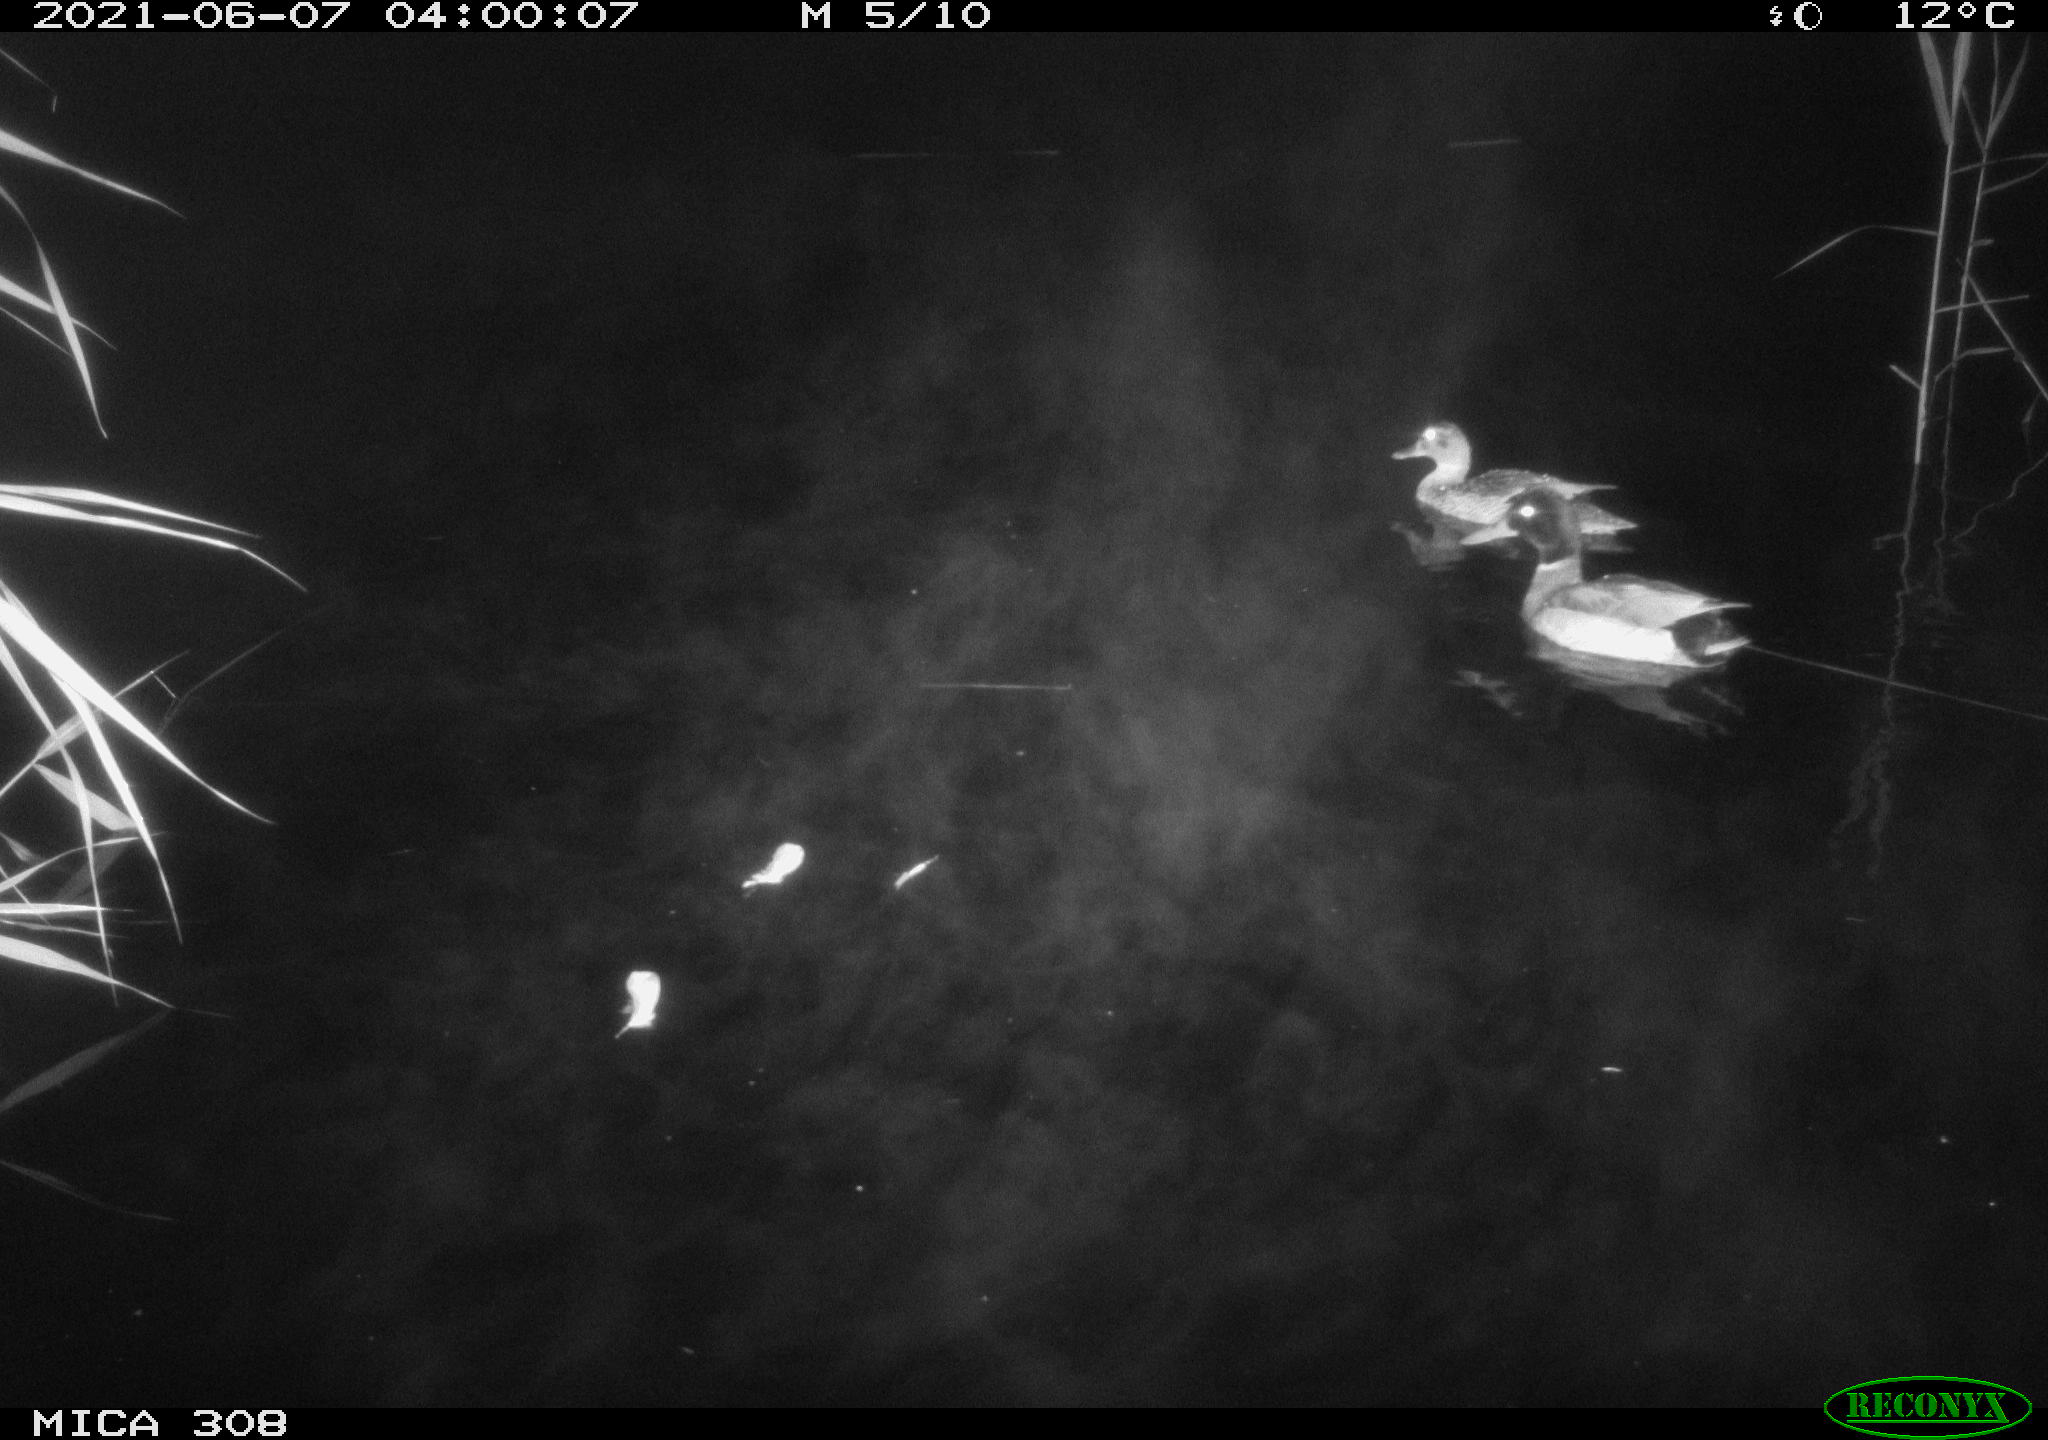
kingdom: Animalia
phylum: Chordata
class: Aves
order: Anseriformes
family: Anatidae
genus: Anas
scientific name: Anas platyrhynchos
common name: Mallard
